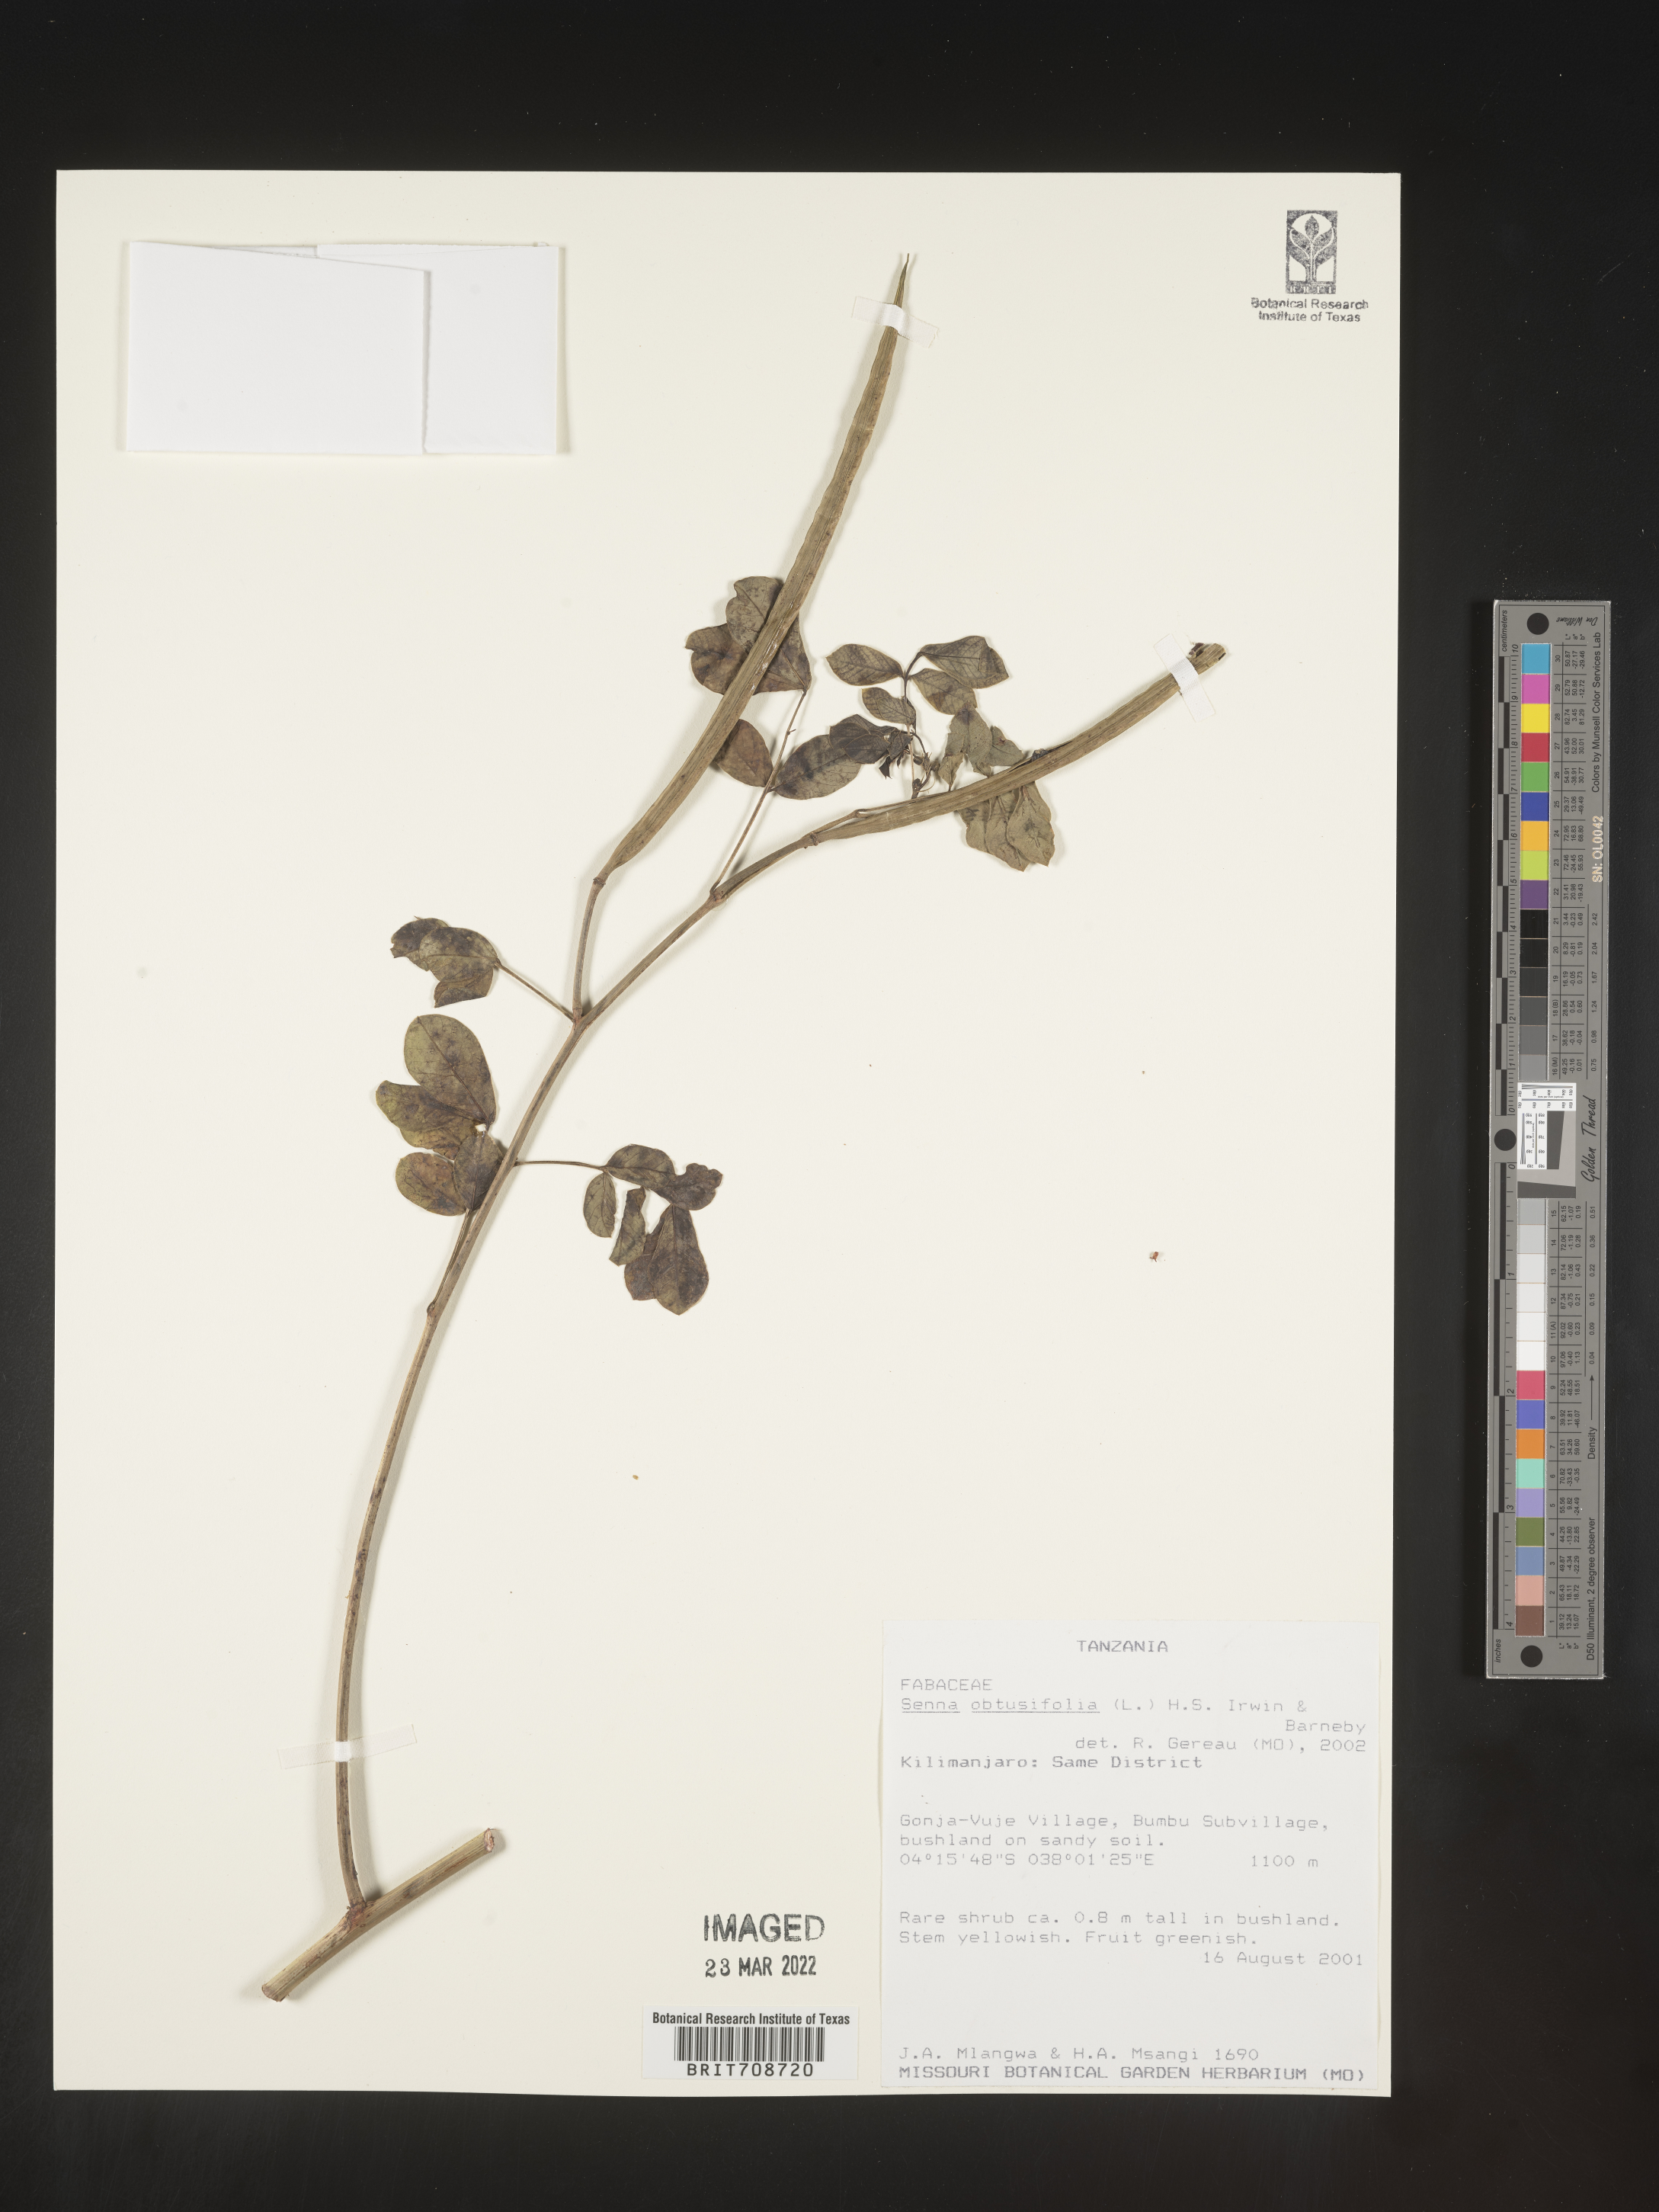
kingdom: Plantae
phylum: Tracheophyta
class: Magnoliopsida
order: Fabales
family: Fabaceae
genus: Senna
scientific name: Senna
